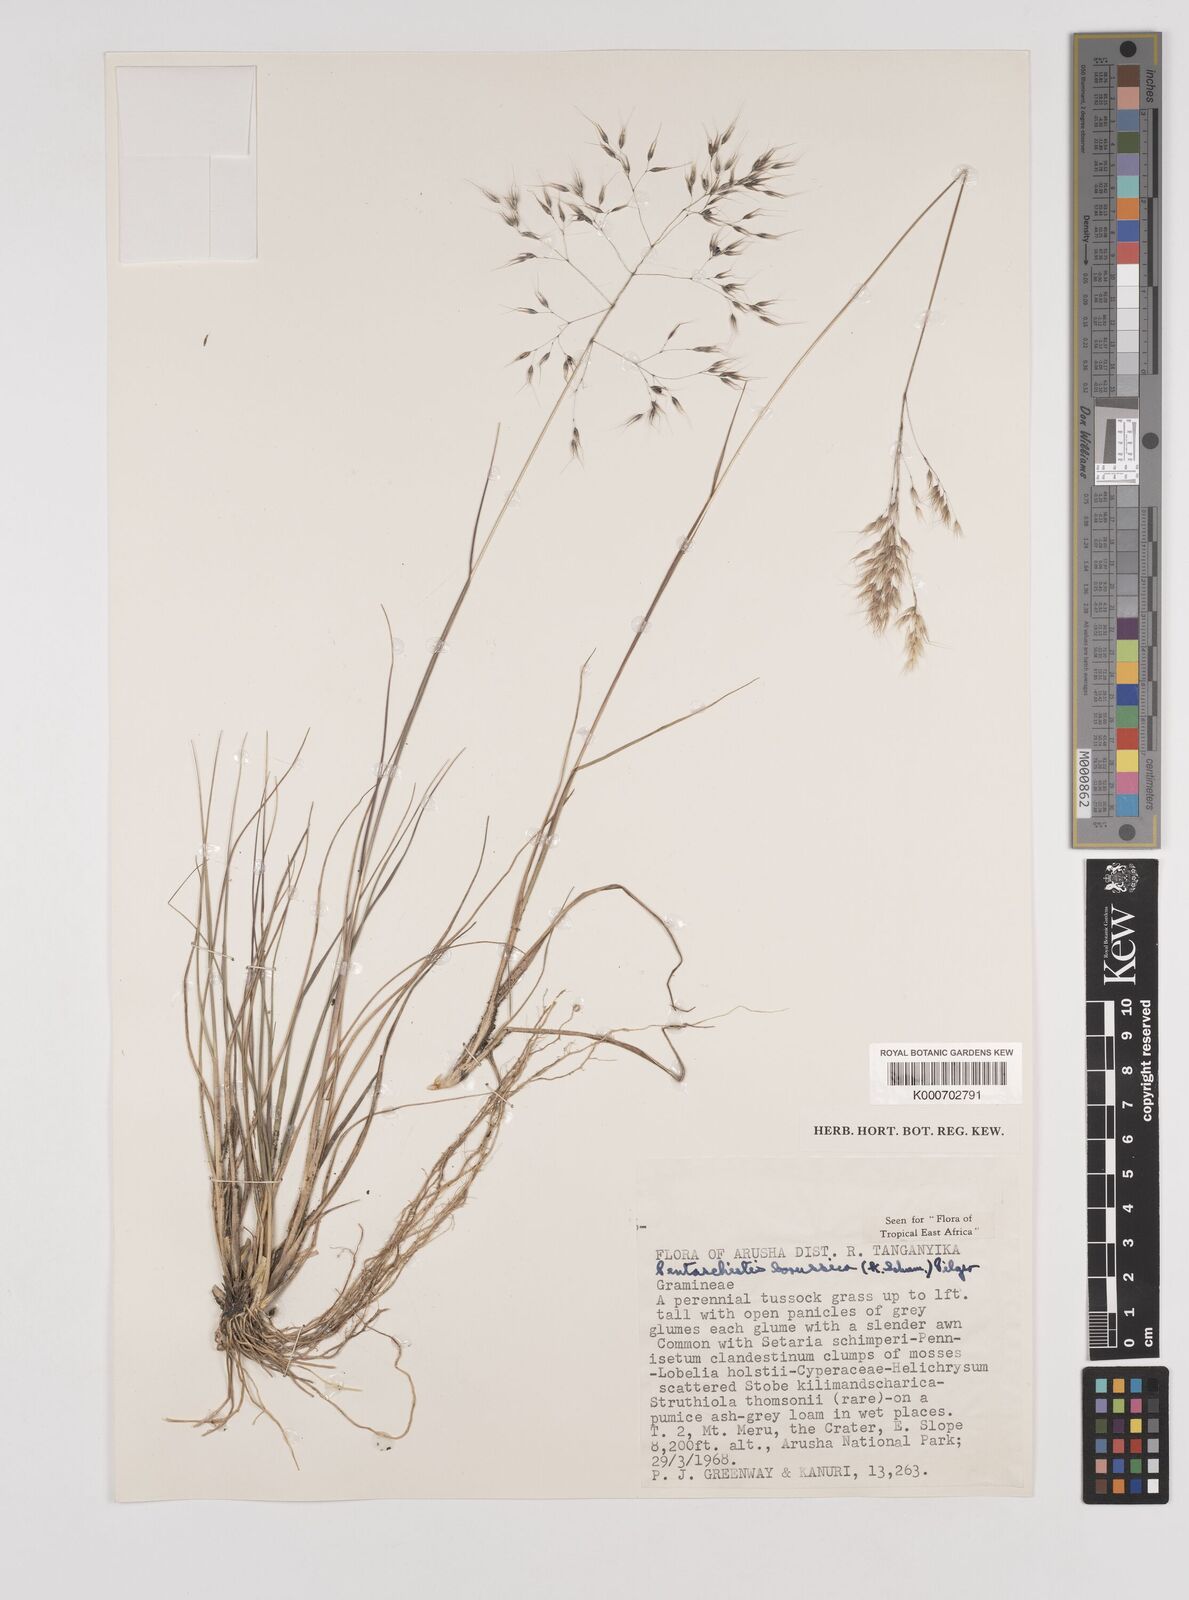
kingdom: Plantae
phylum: Tracheophyta
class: Liliopsida
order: Poales
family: Poaceae
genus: Pentameris
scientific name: Pentameris borussica
